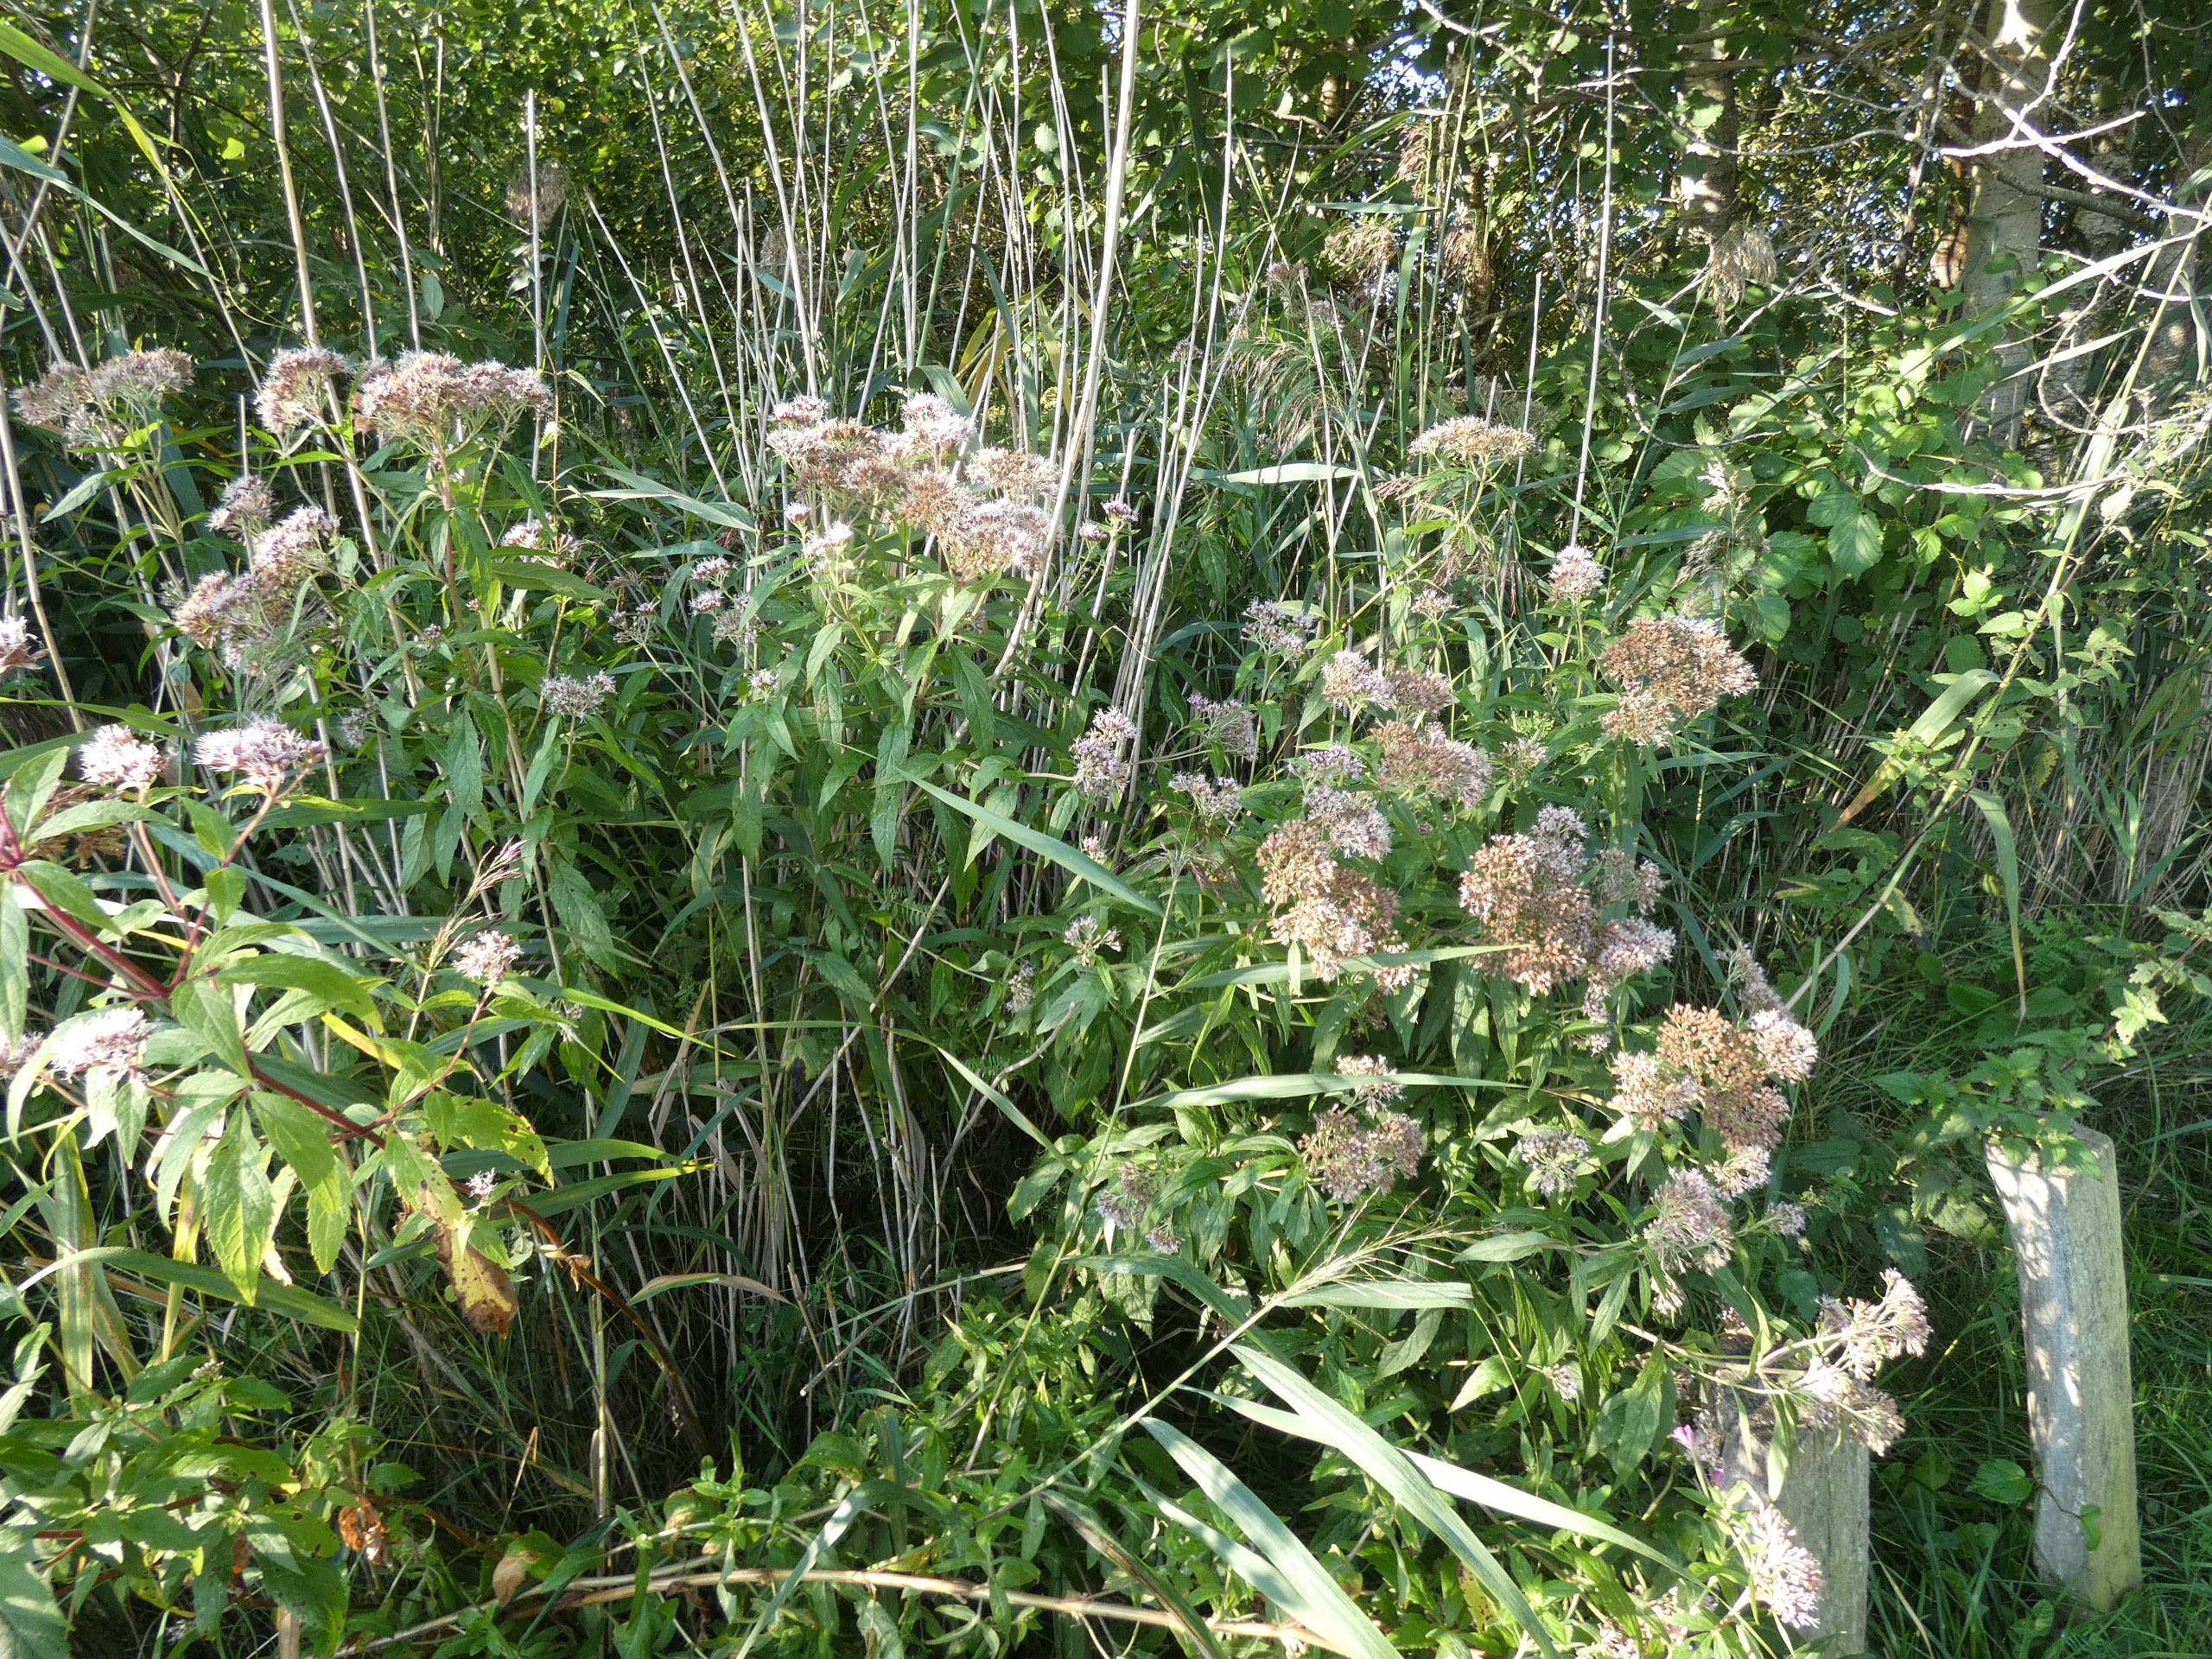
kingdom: Plantae
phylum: Tracheophyta
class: Magnoliopsida
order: Asterales
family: Asteraceae
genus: Eupatorium
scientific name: Eupatorium cannabinum
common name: Hjortetrøst
